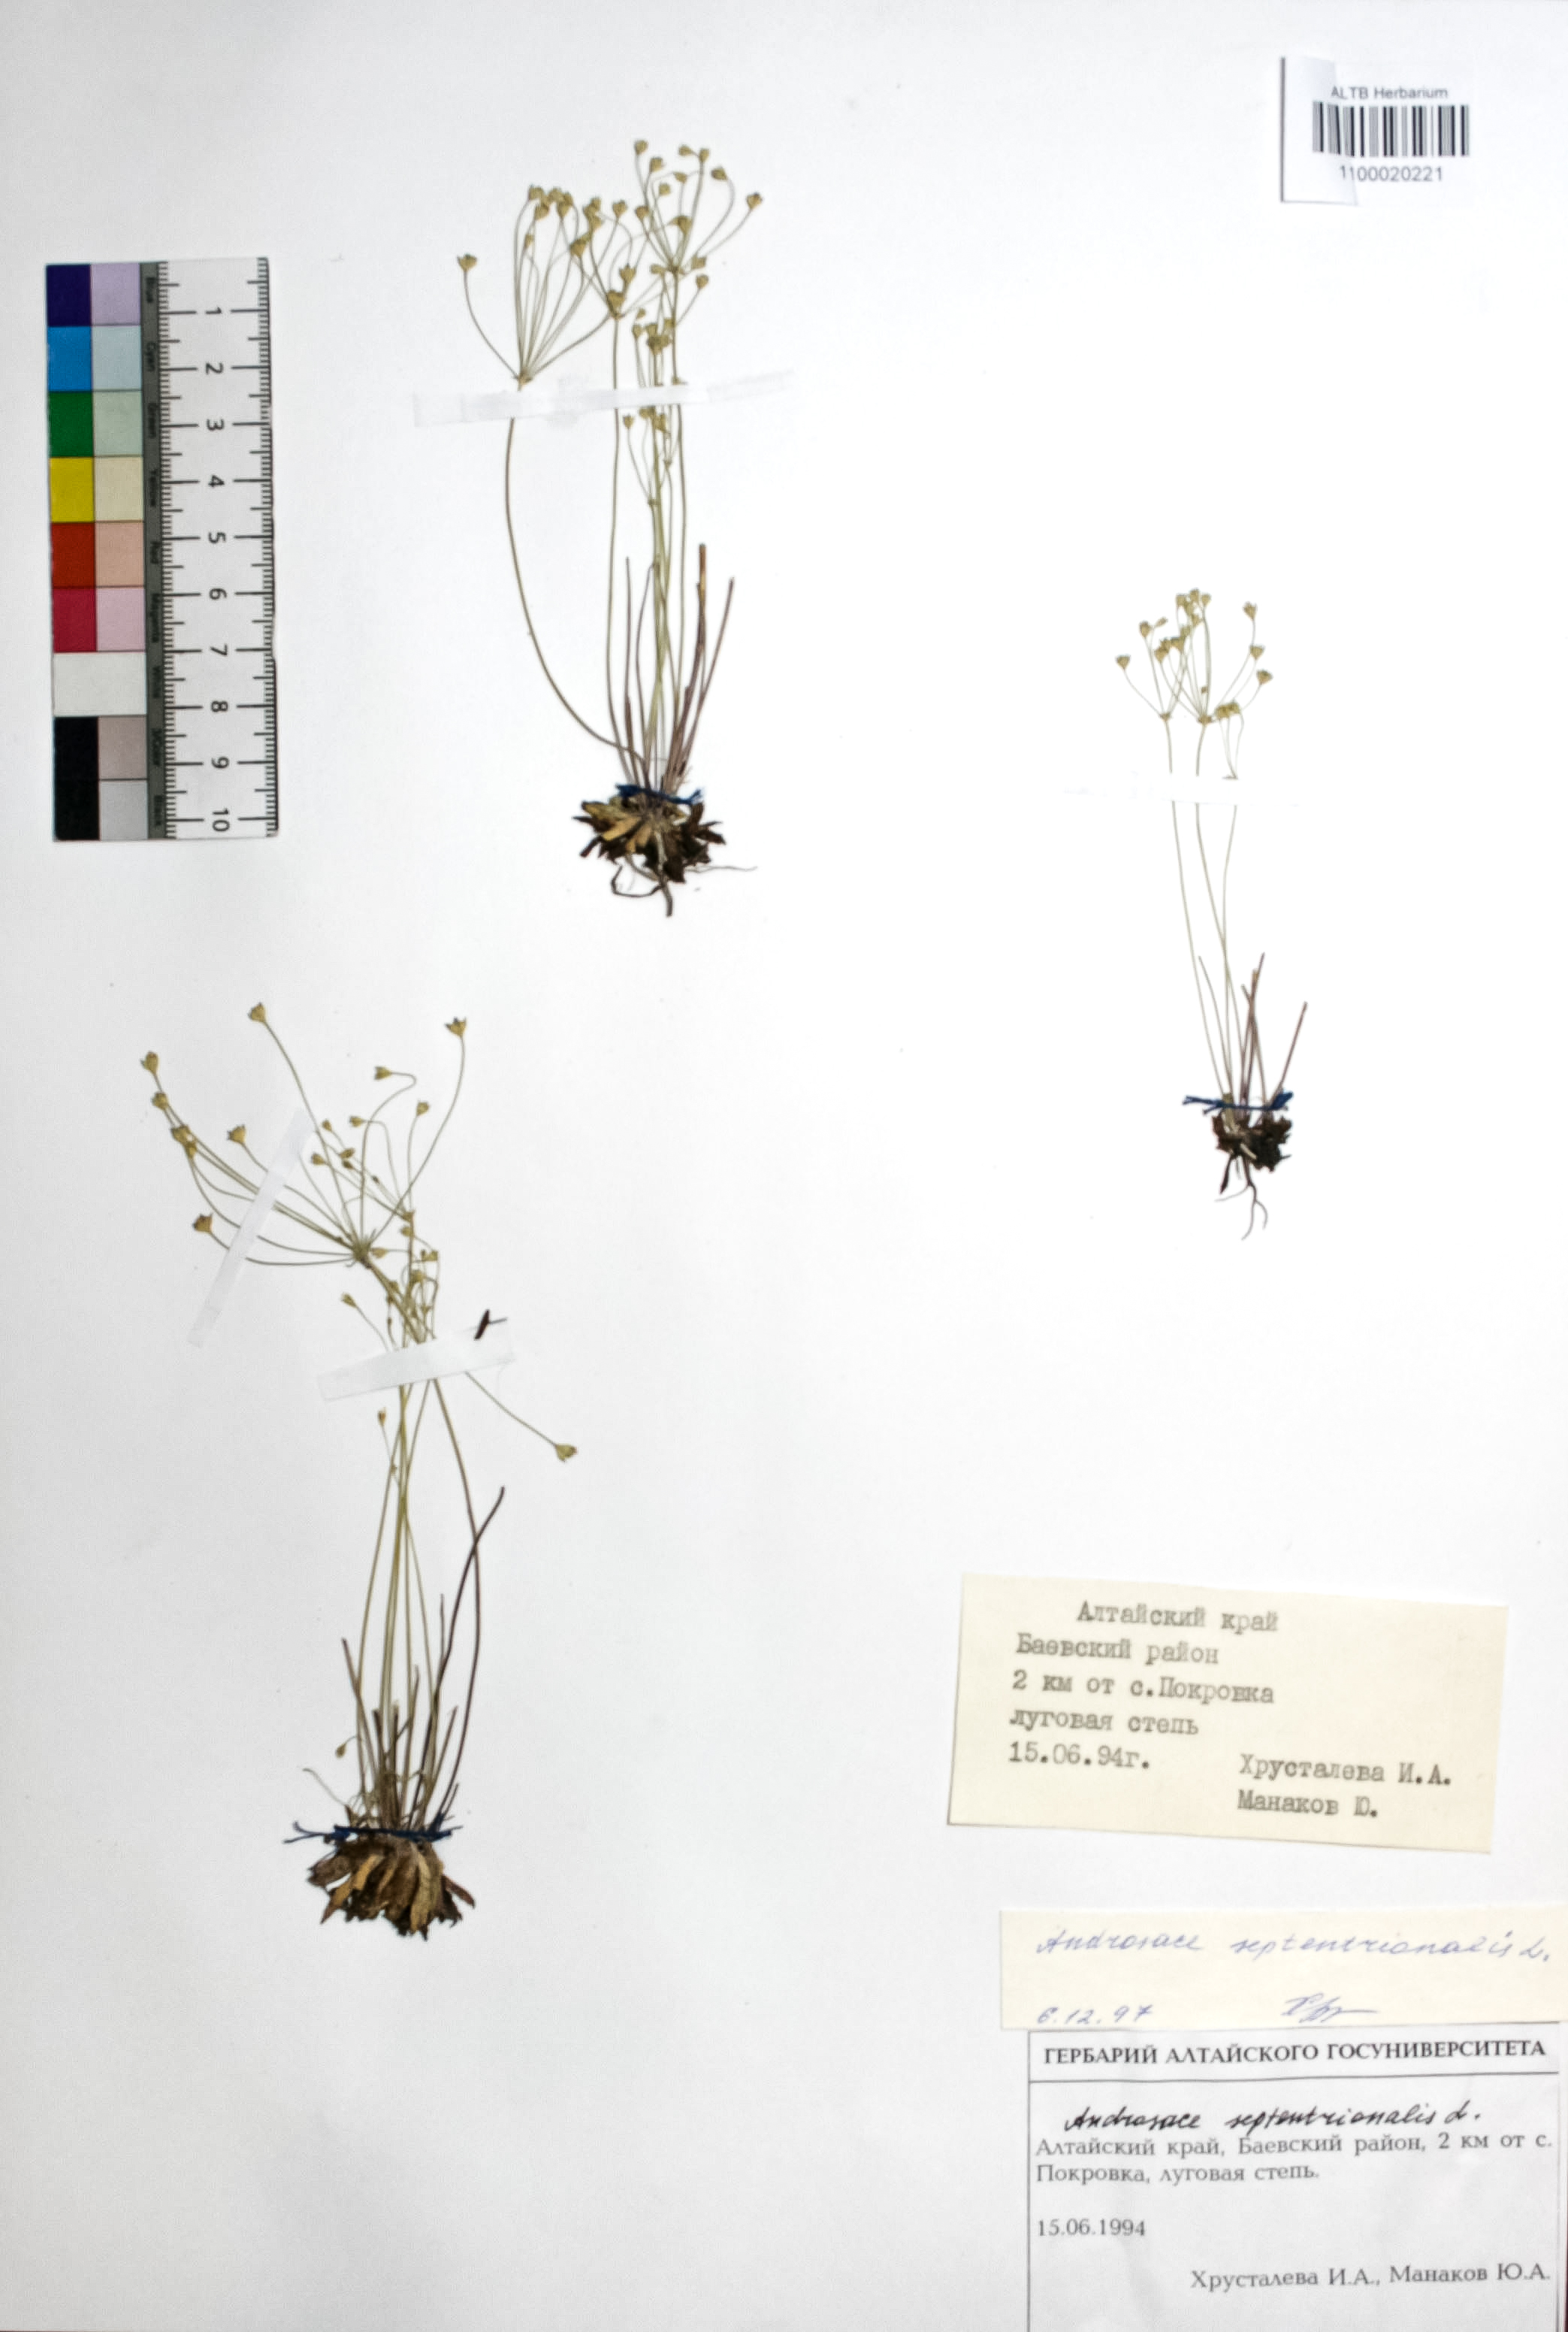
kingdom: Plantae
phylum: Tracheophyta
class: Magnoliopsida
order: Ericales
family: Primulaceae
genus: Androsace
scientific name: Androsace septentrionalis
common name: Hairy northern fairy-candelabra
